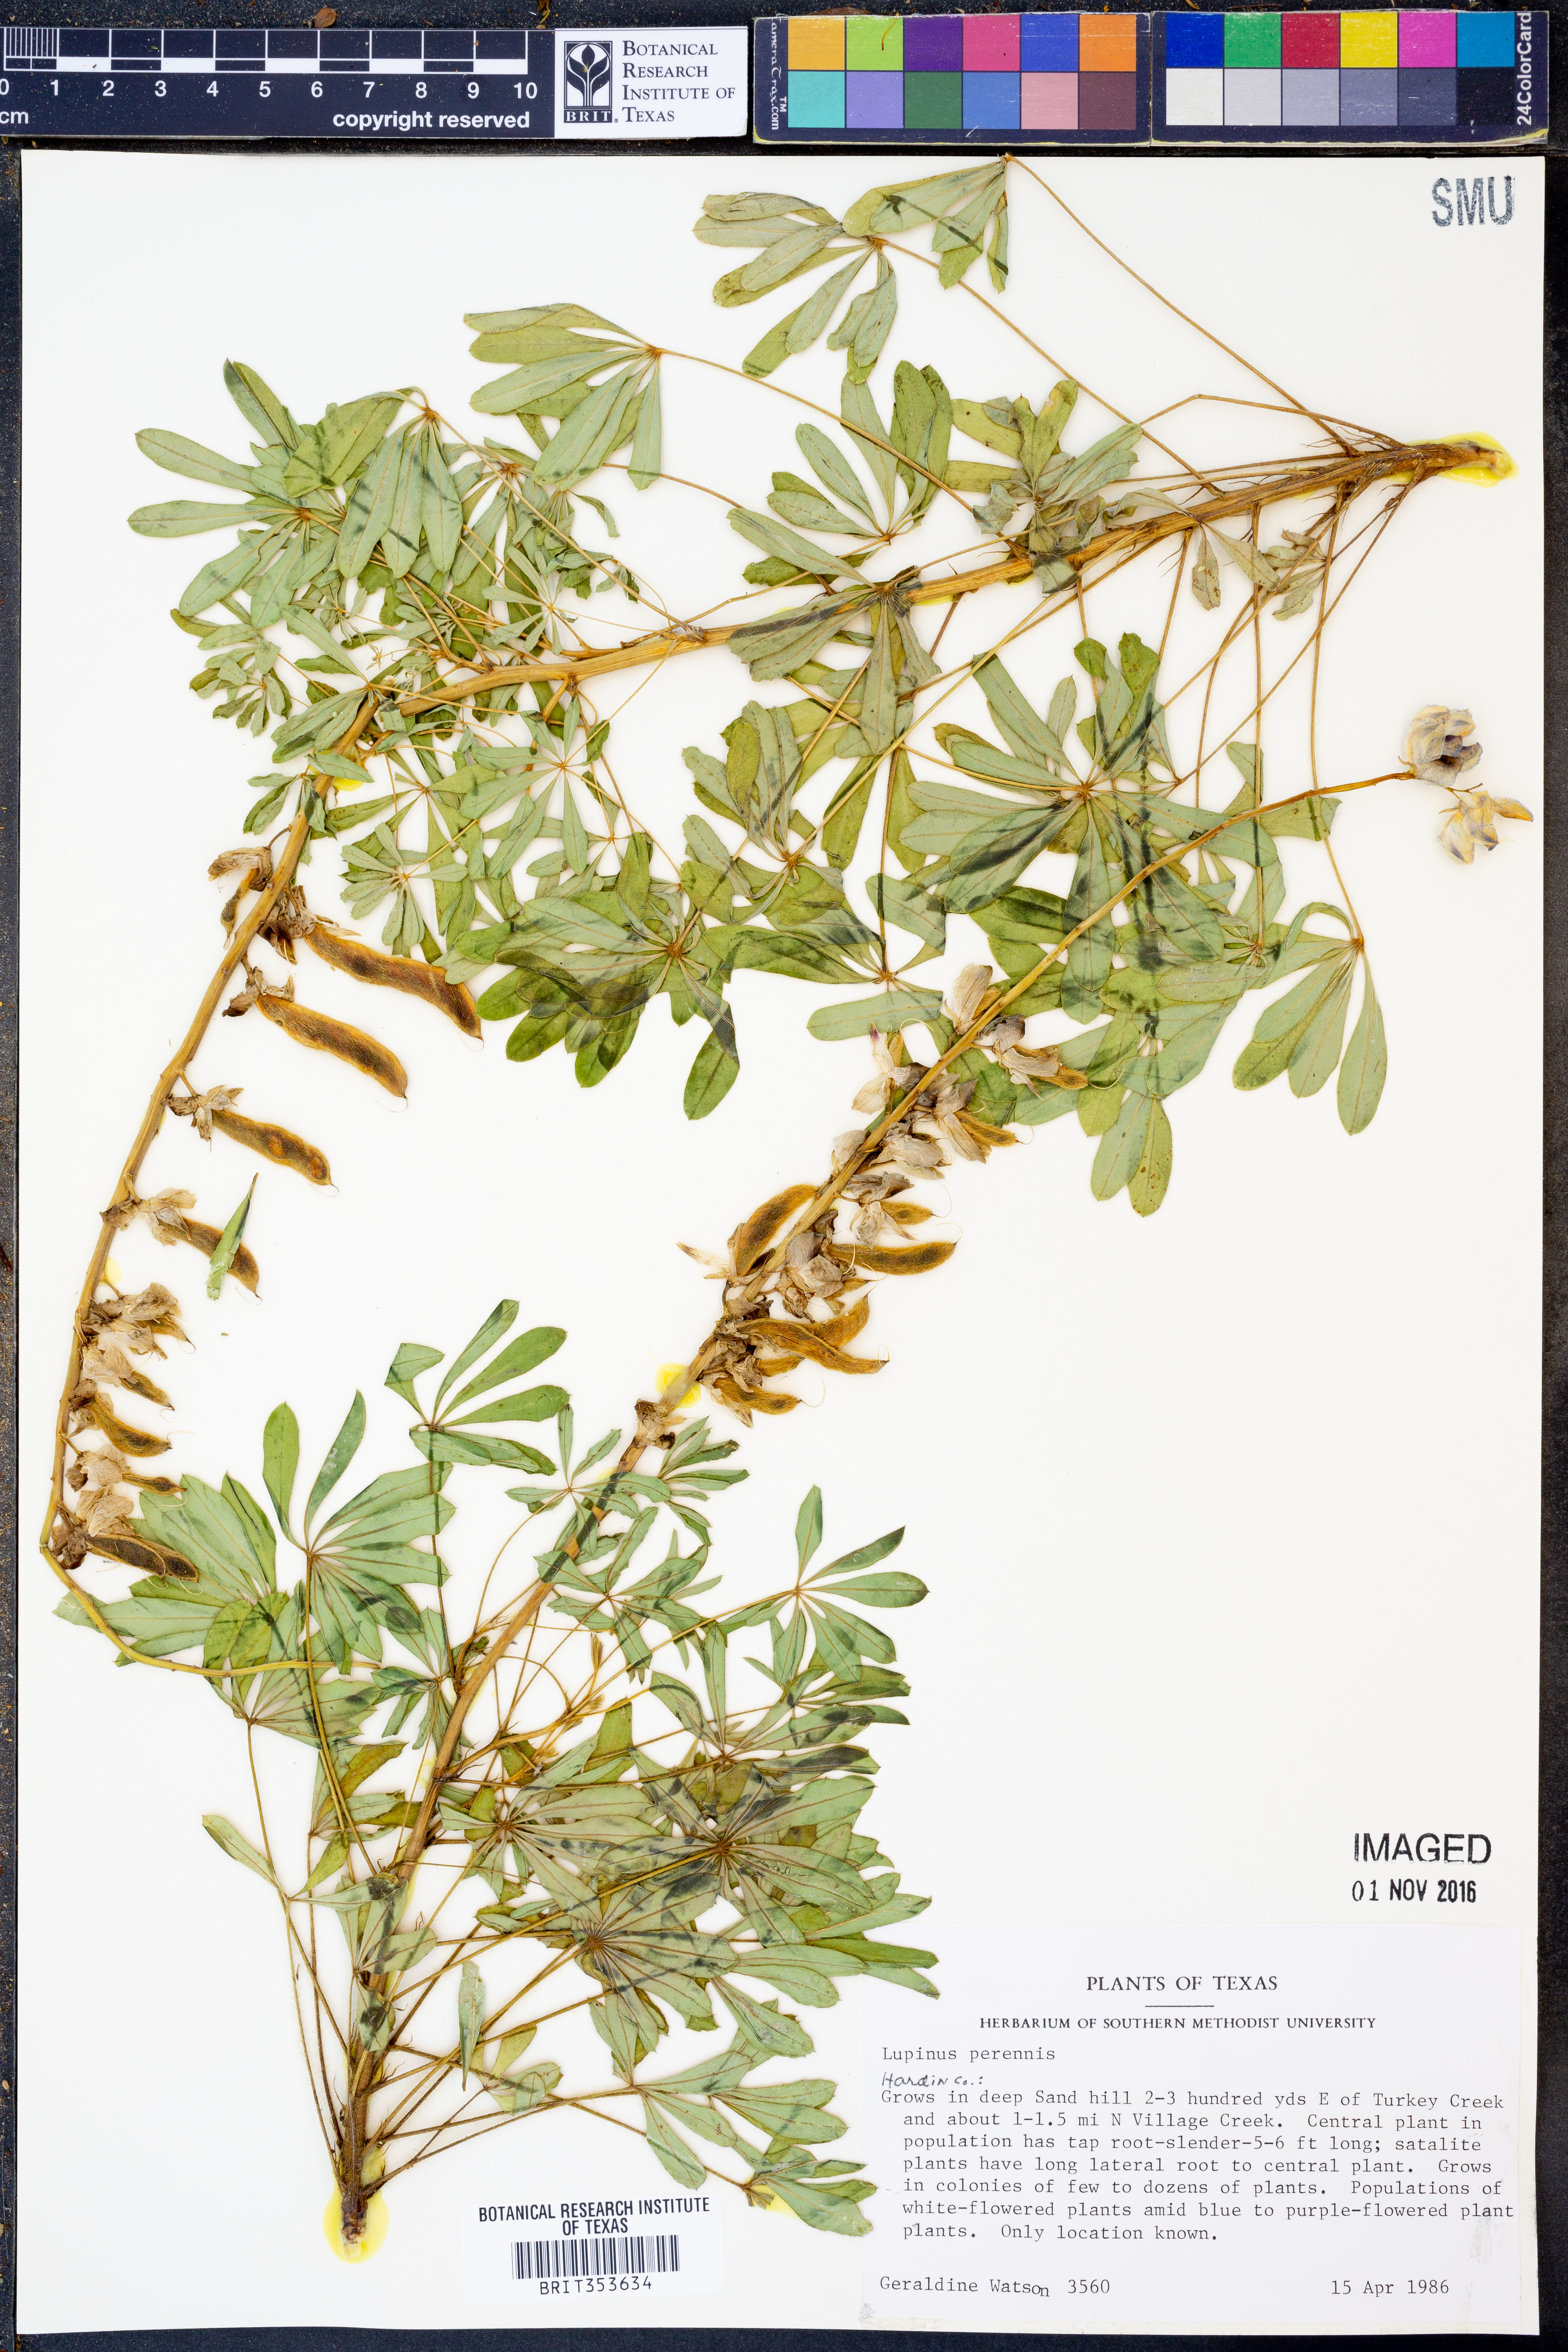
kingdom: Plantae
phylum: Tracheophyta
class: Magnoliopsida
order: Fabales
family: Fabaceae
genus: Lupinus
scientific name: Lupinus perennis
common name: Sundial lupine
